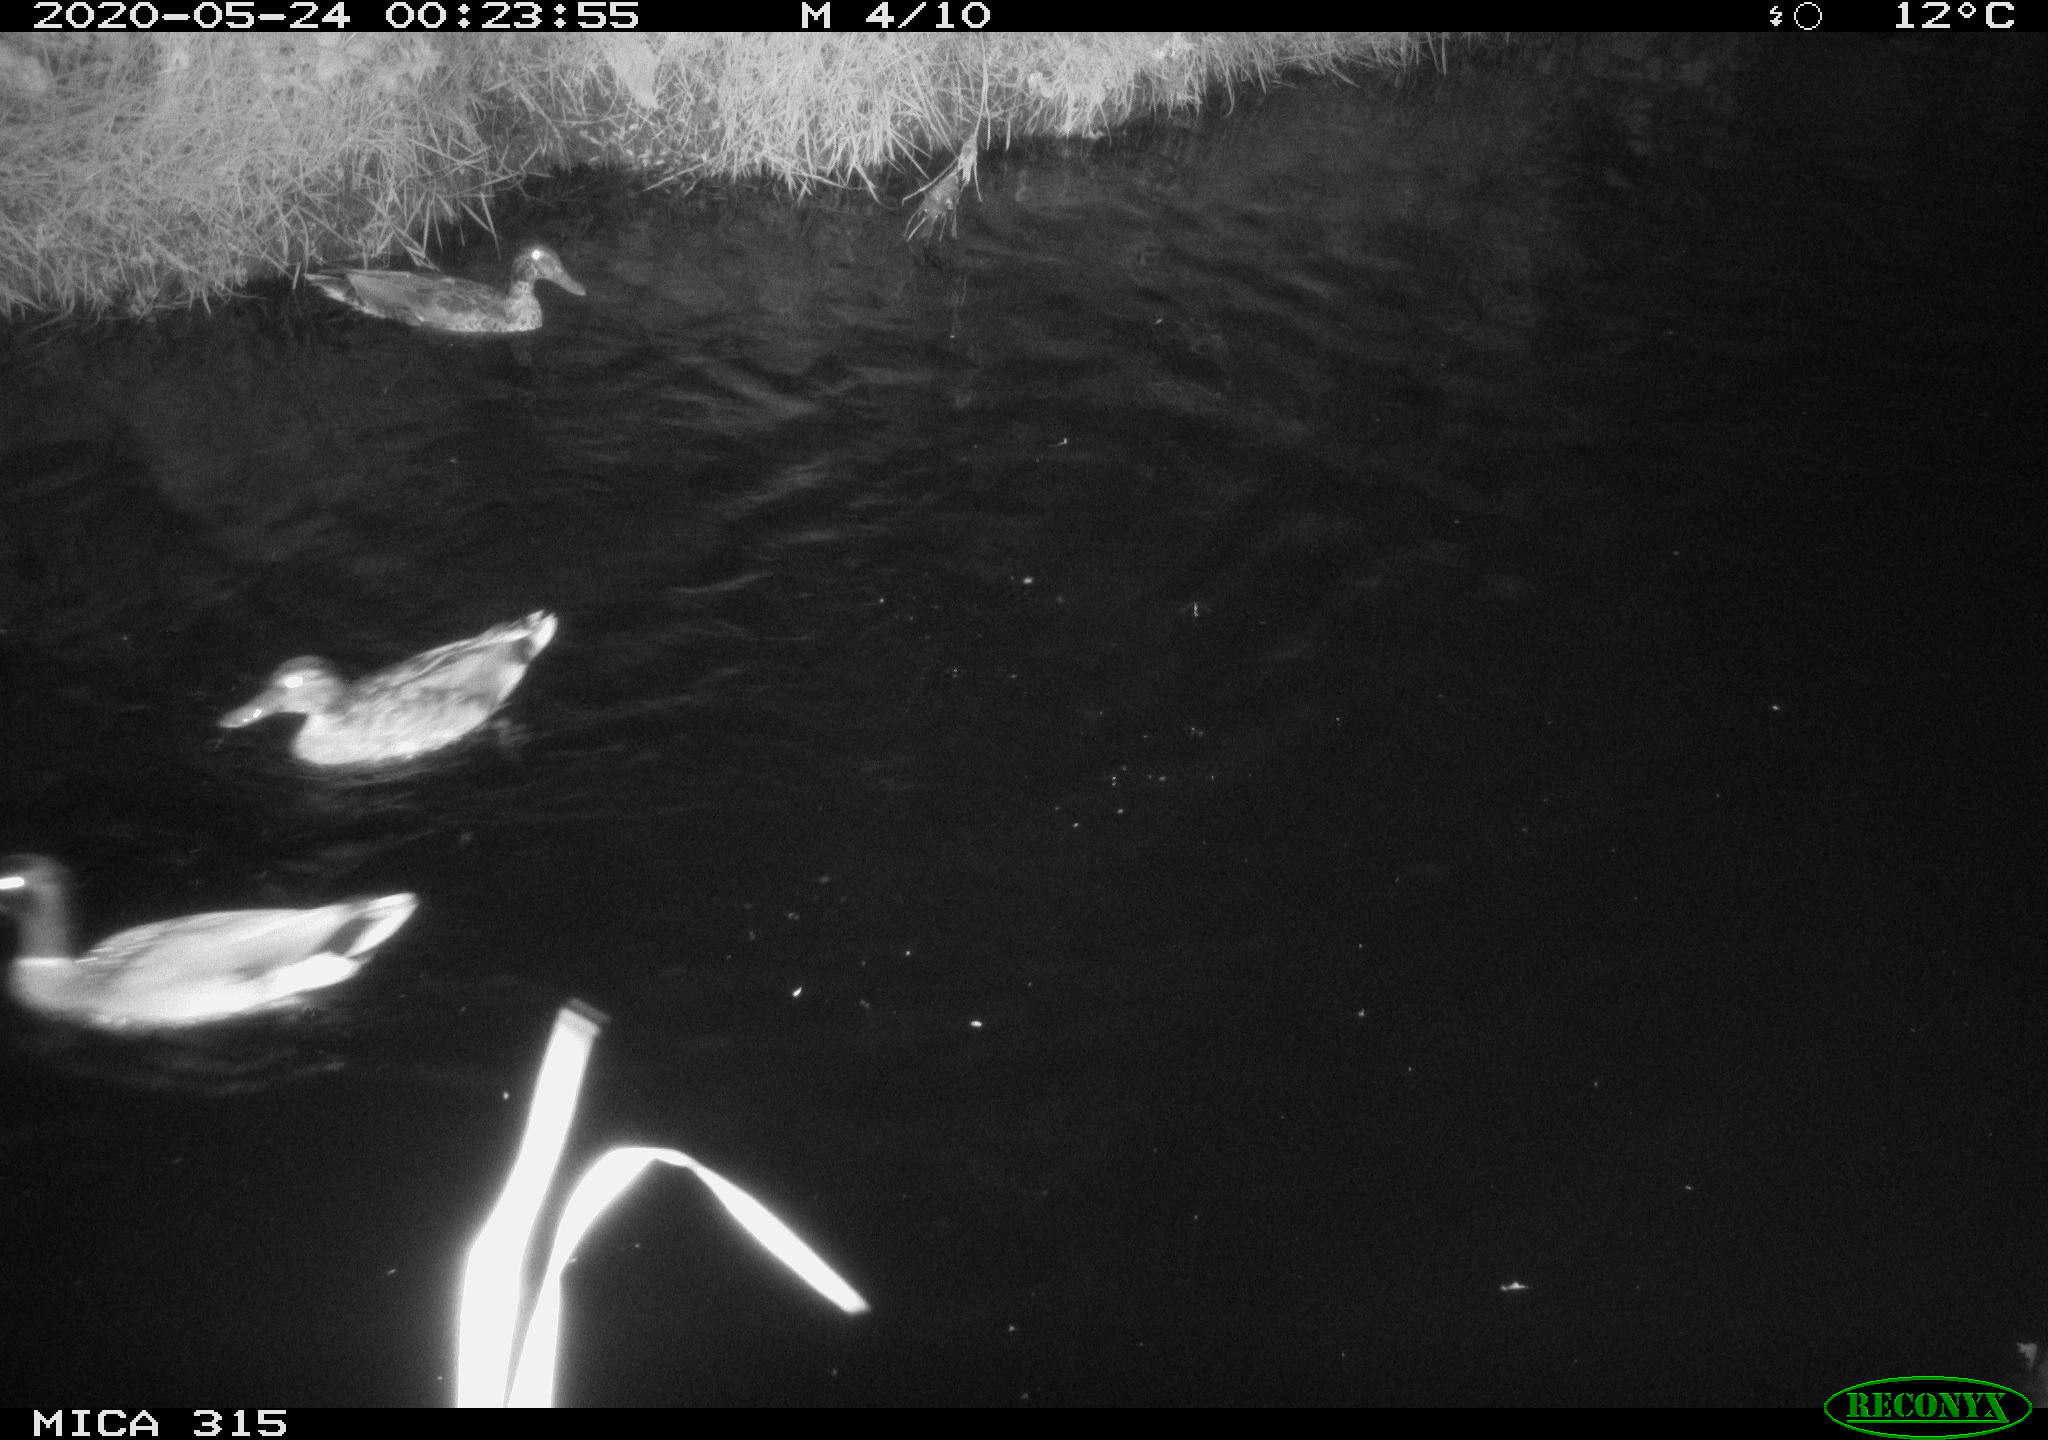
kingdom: Animalia
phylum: Chordata
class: Aves
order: Anseriformes
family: Anatidae
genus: Anas
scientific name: Anas platyrhynchos
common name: Mallard
